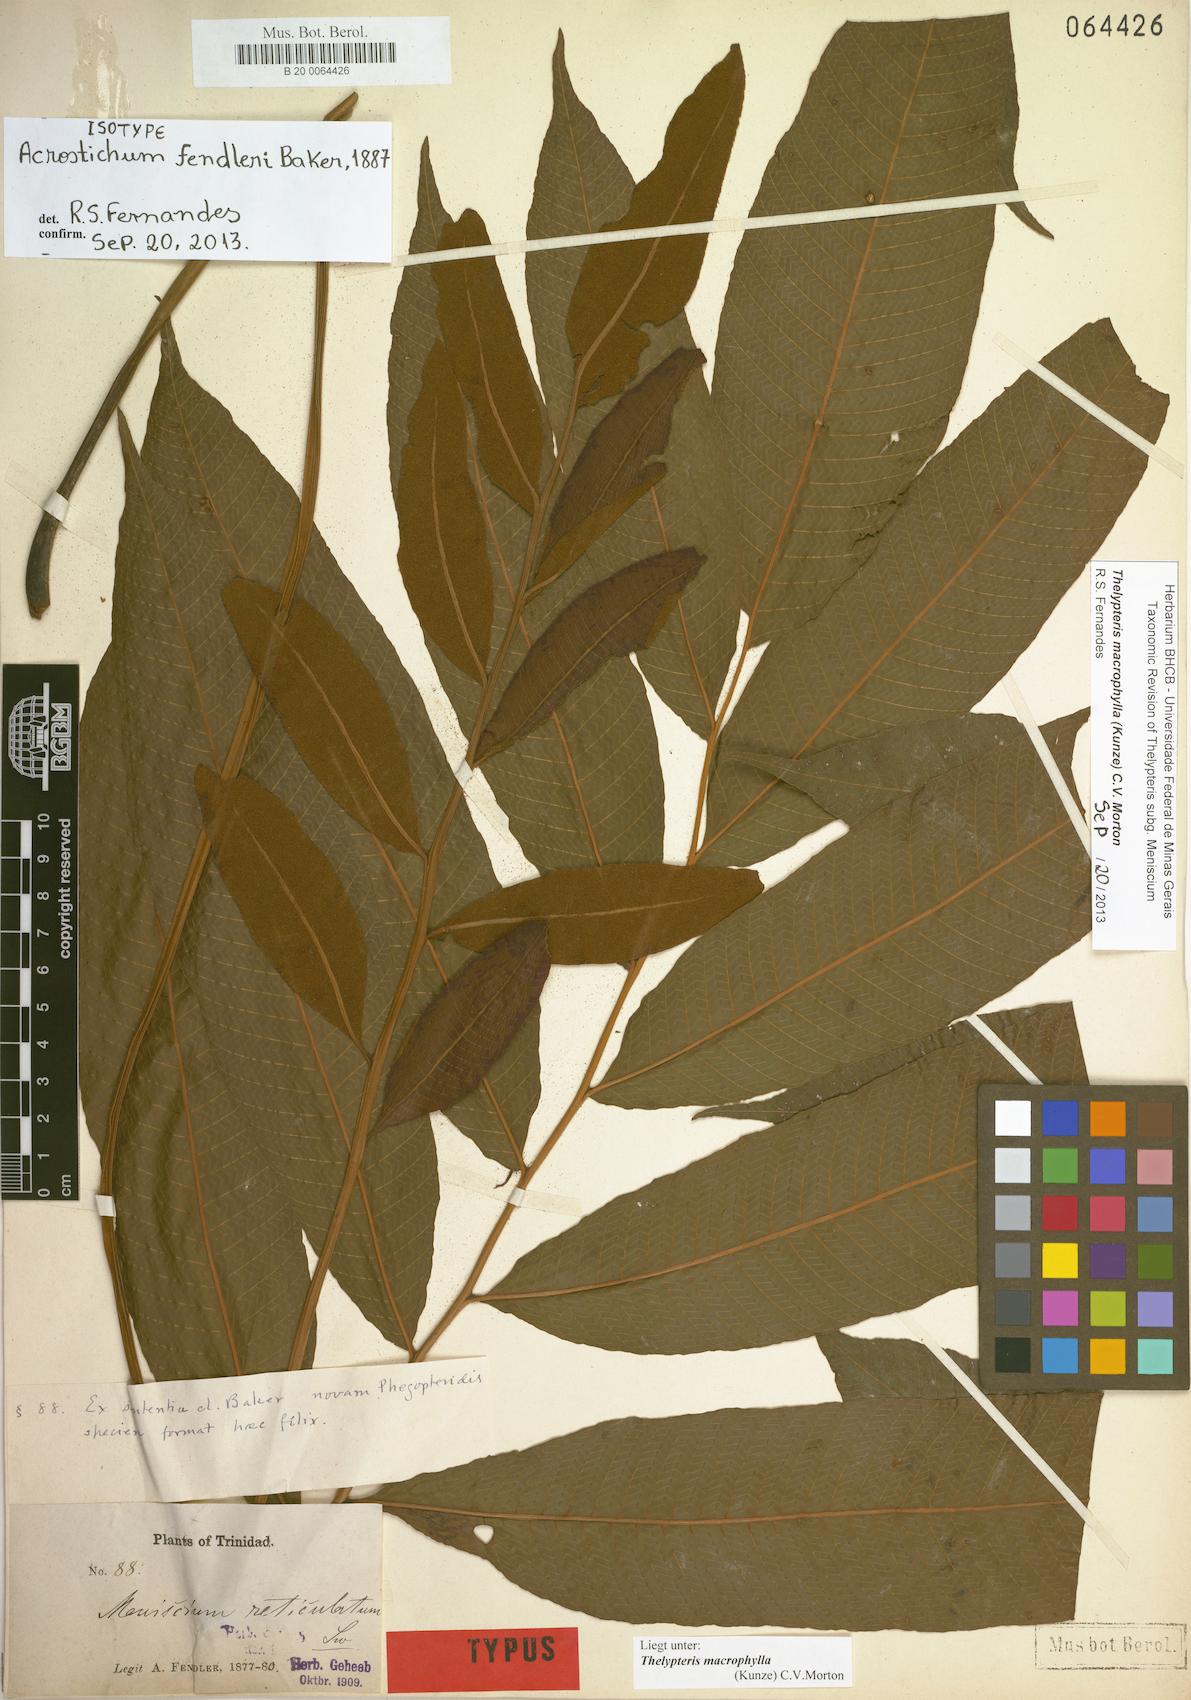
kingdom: Plantae
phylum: Tracheophyta
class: Polypodiopsida
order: Polypodiales
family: Thelypteridaceae
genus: Meniscium
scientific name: Meniscium macrophyllum
